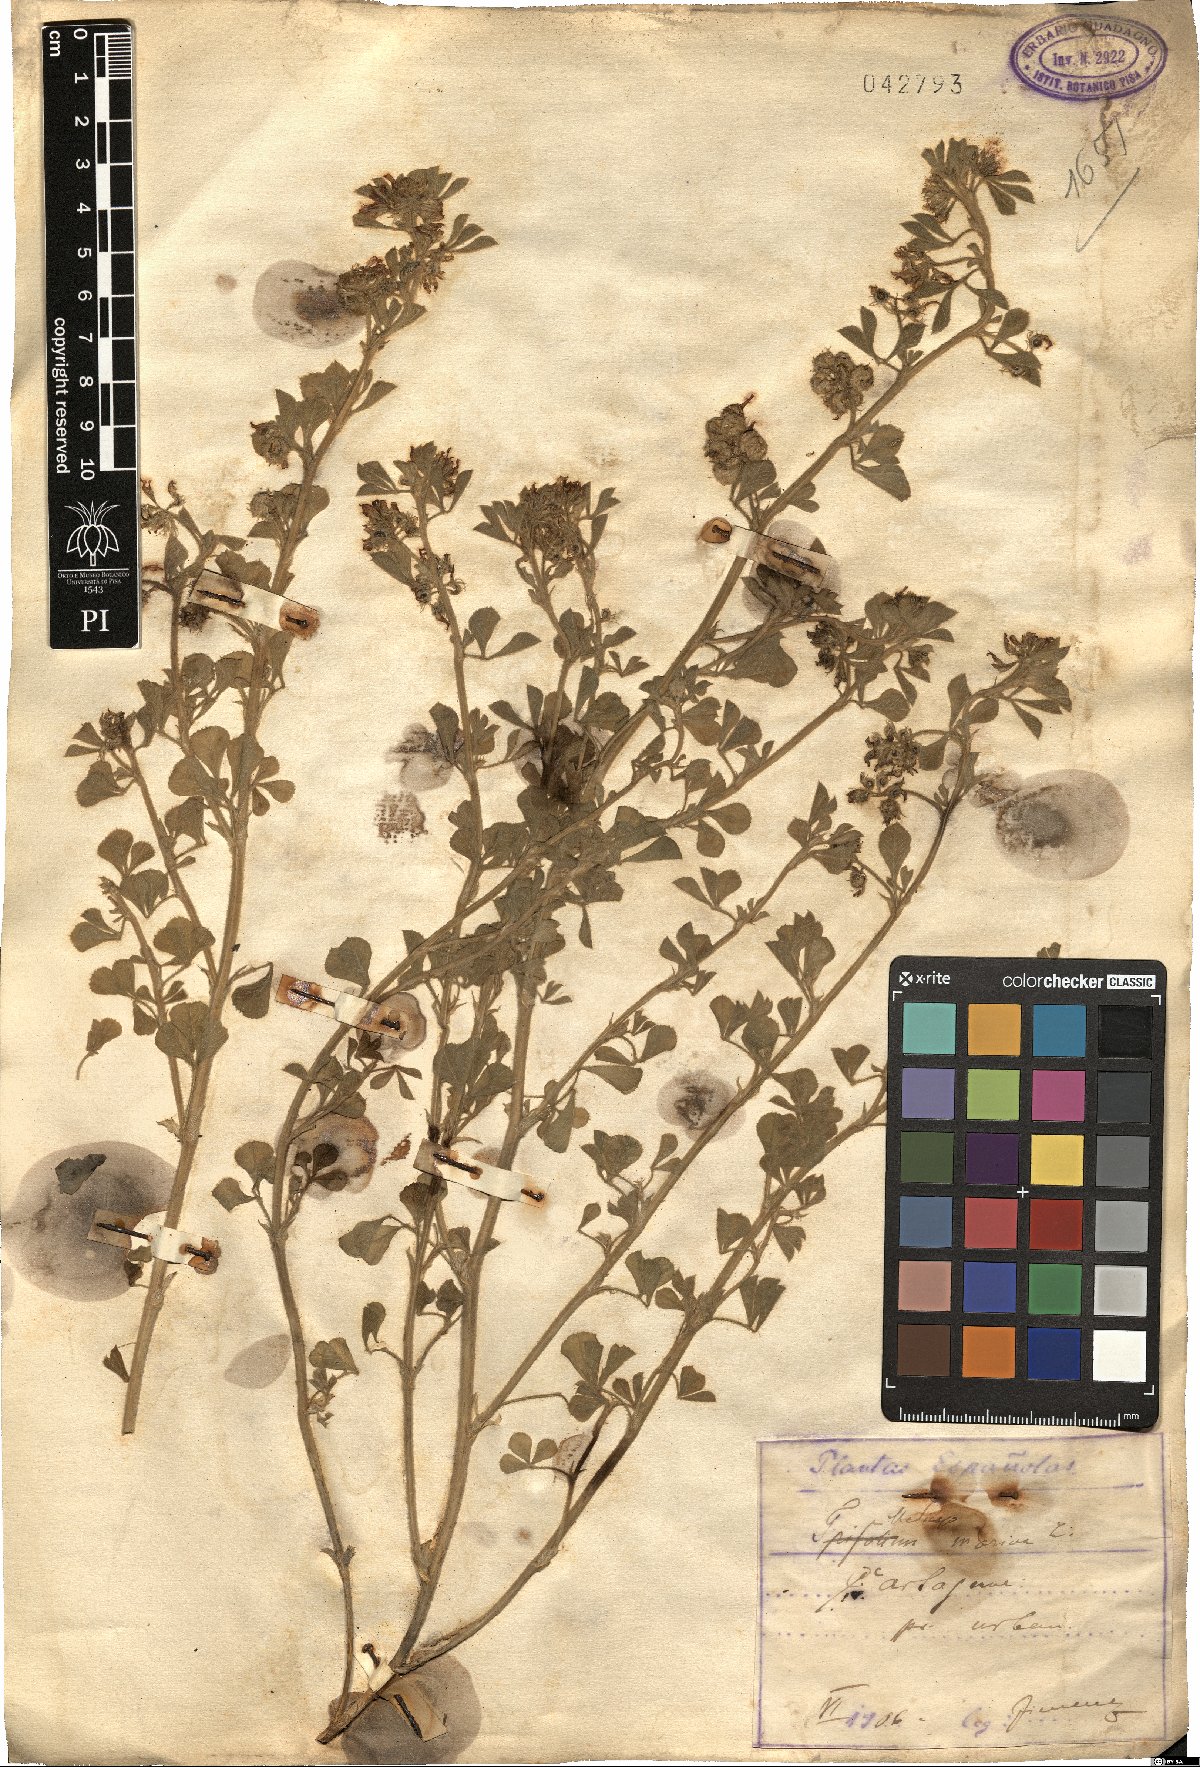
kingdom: Plantae
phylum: Tracheophyta
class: Magnoliopsida
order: Fabales
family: Fabaceae
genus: Medicago
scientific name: Medicago marina
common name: Sea medick
